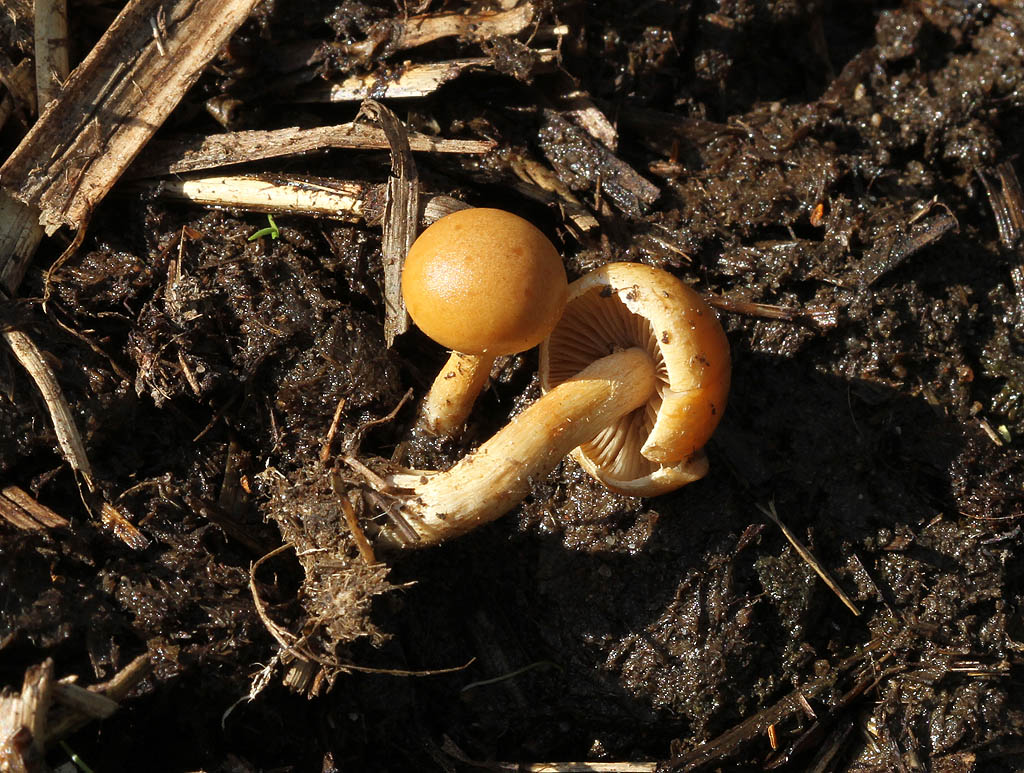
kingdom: Fungi
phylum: Basidiomycota
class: Agaricomycetes
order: Agaricales
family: Strophariaceae
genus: Agrocybe
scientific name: Agrocybe fimicola
